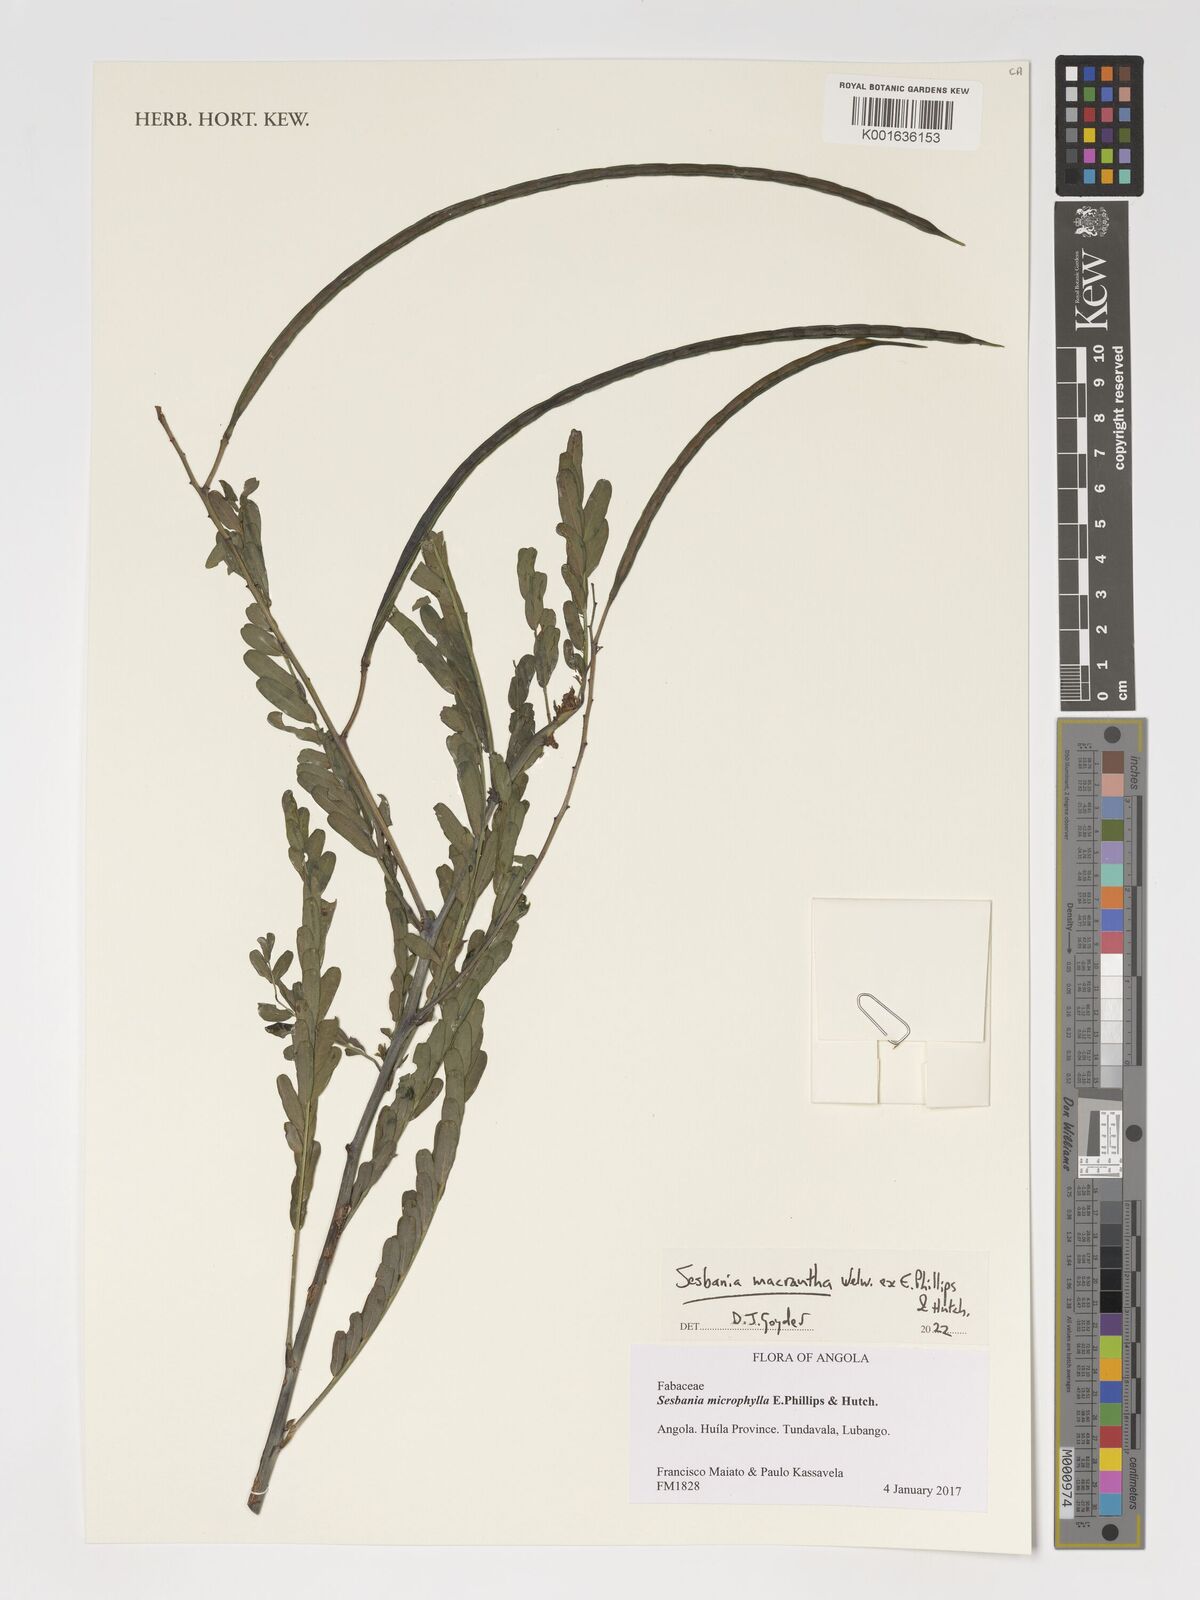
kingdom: Plantae
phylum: Tracheophyta
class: Magnoliopsida
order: Fabales
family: Fabaceae
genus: Sesbania
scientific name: Sesbania macrantha
